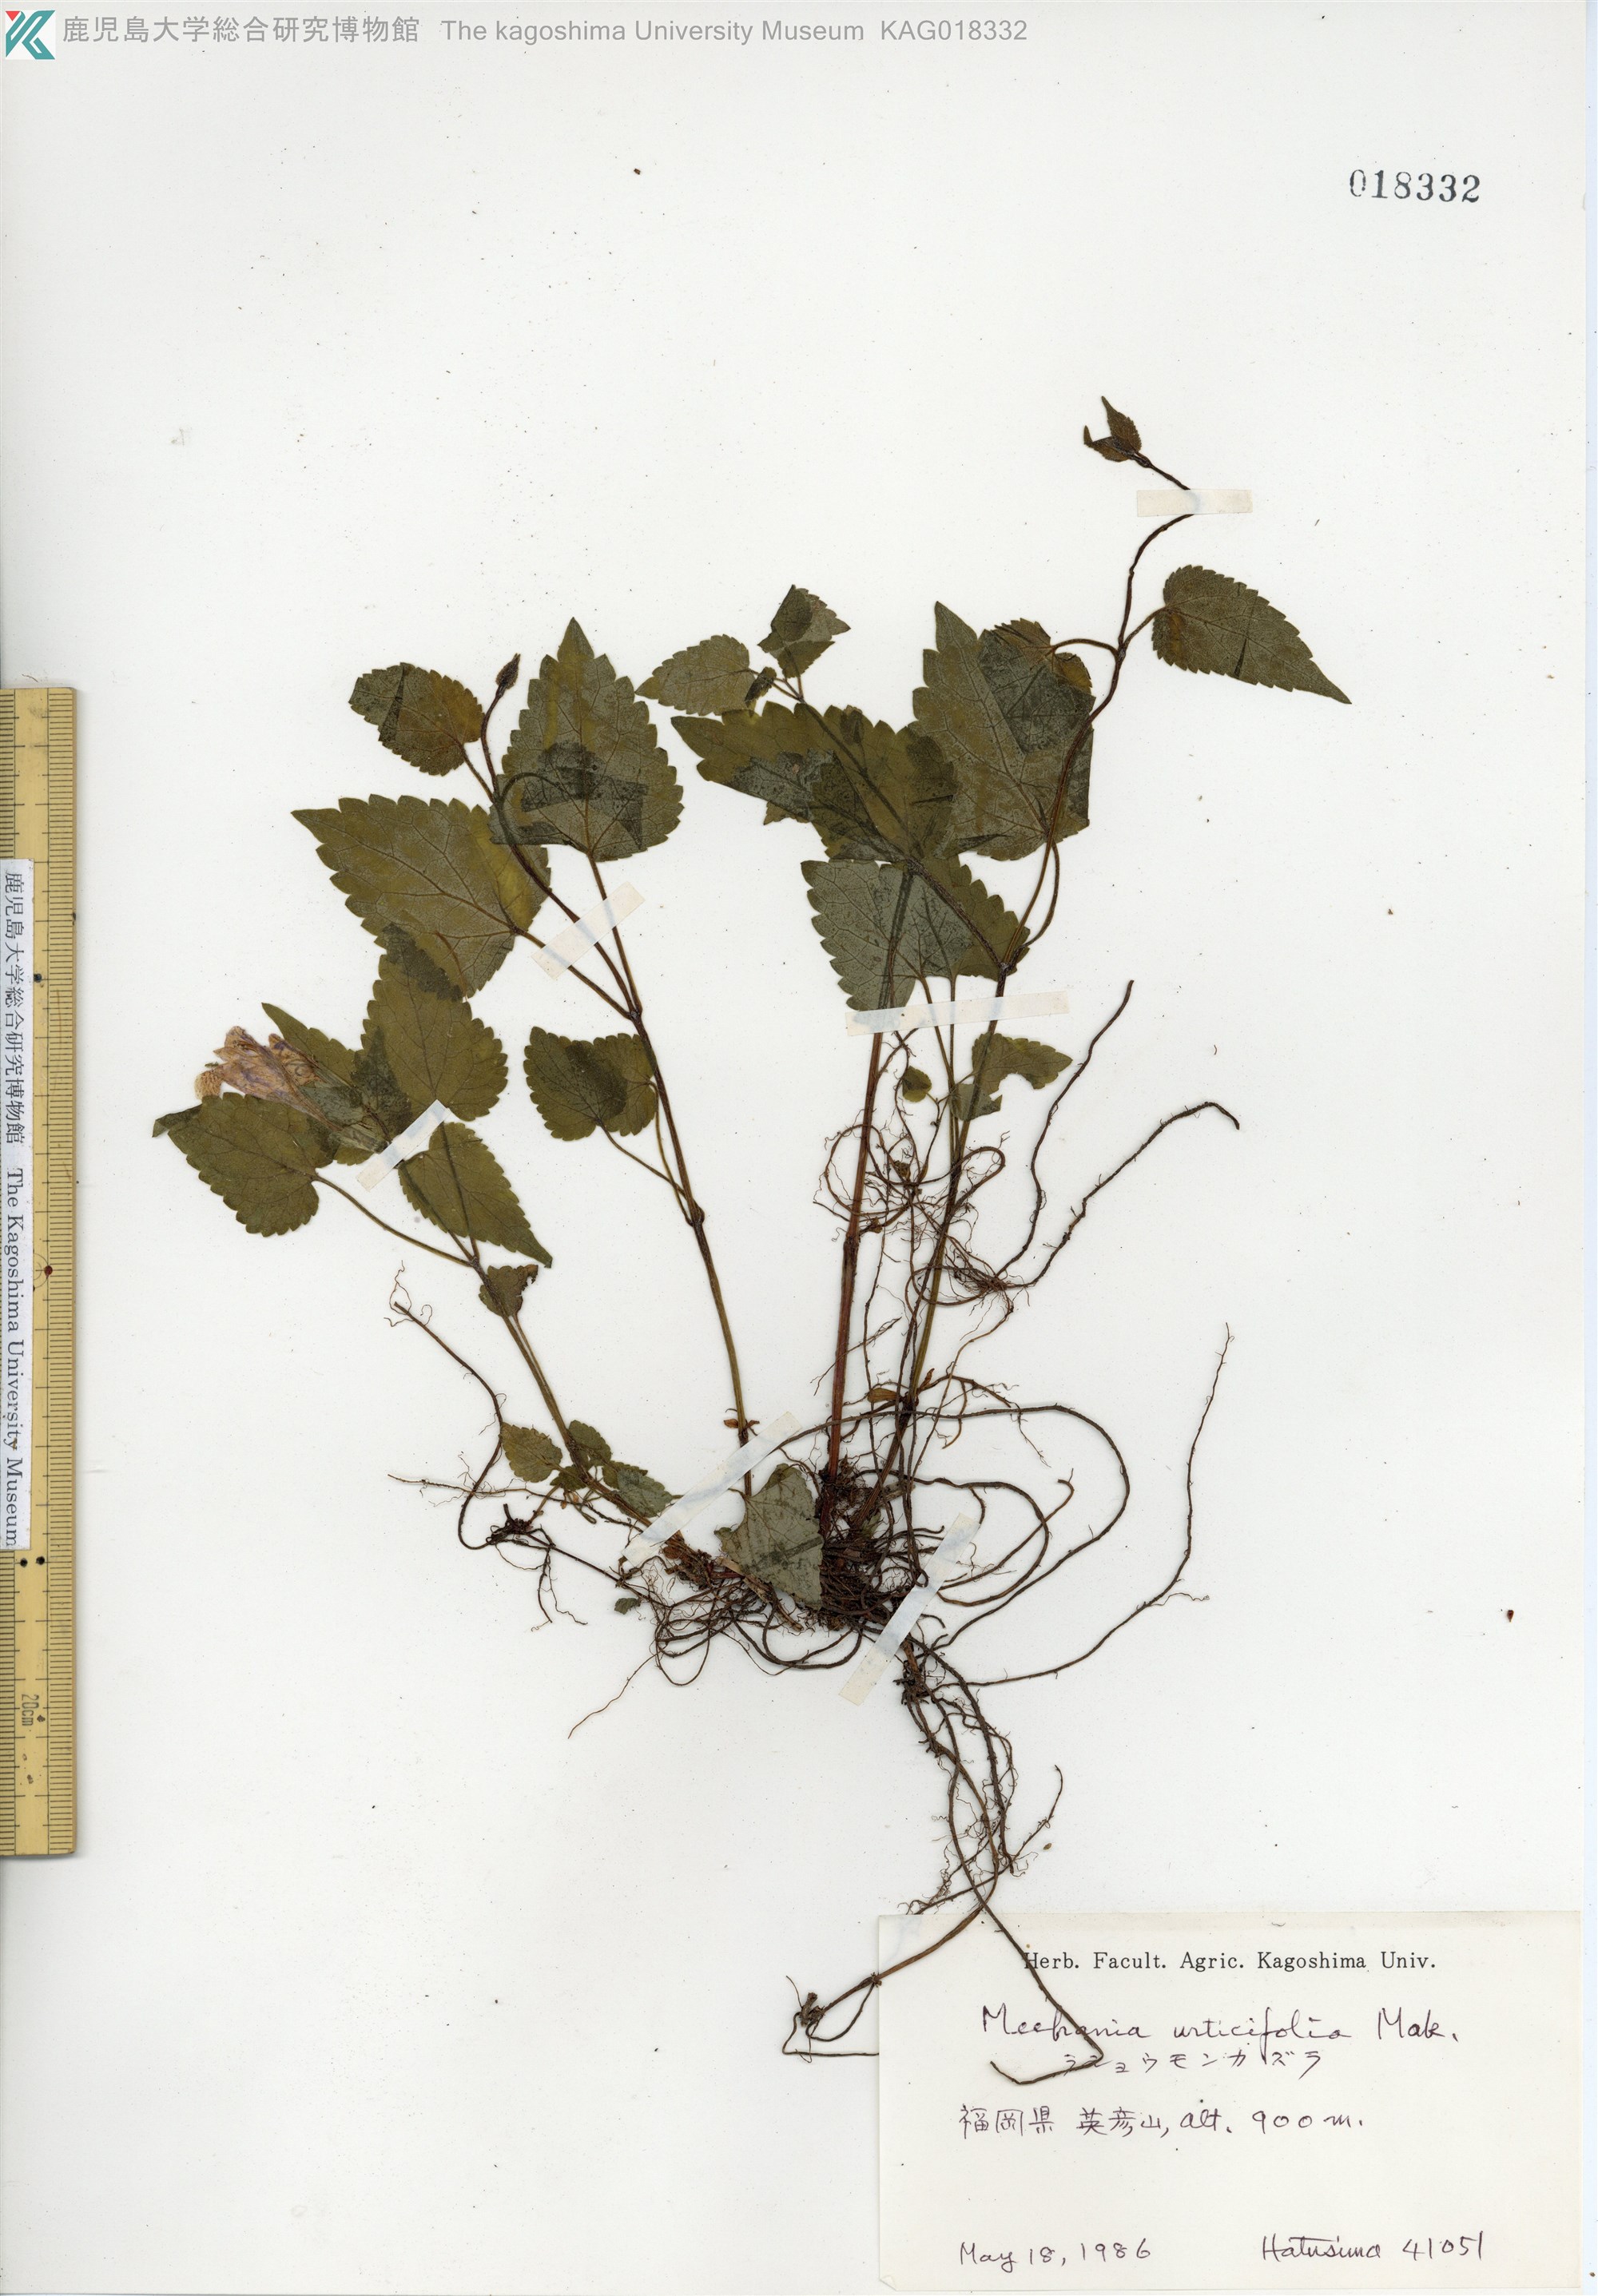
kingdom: Plantae
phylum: Tracheophyta
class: Magnoliopsida
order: Lamiales
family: Lamiaceae
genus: Meehania
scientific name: Meehania urticifolia
